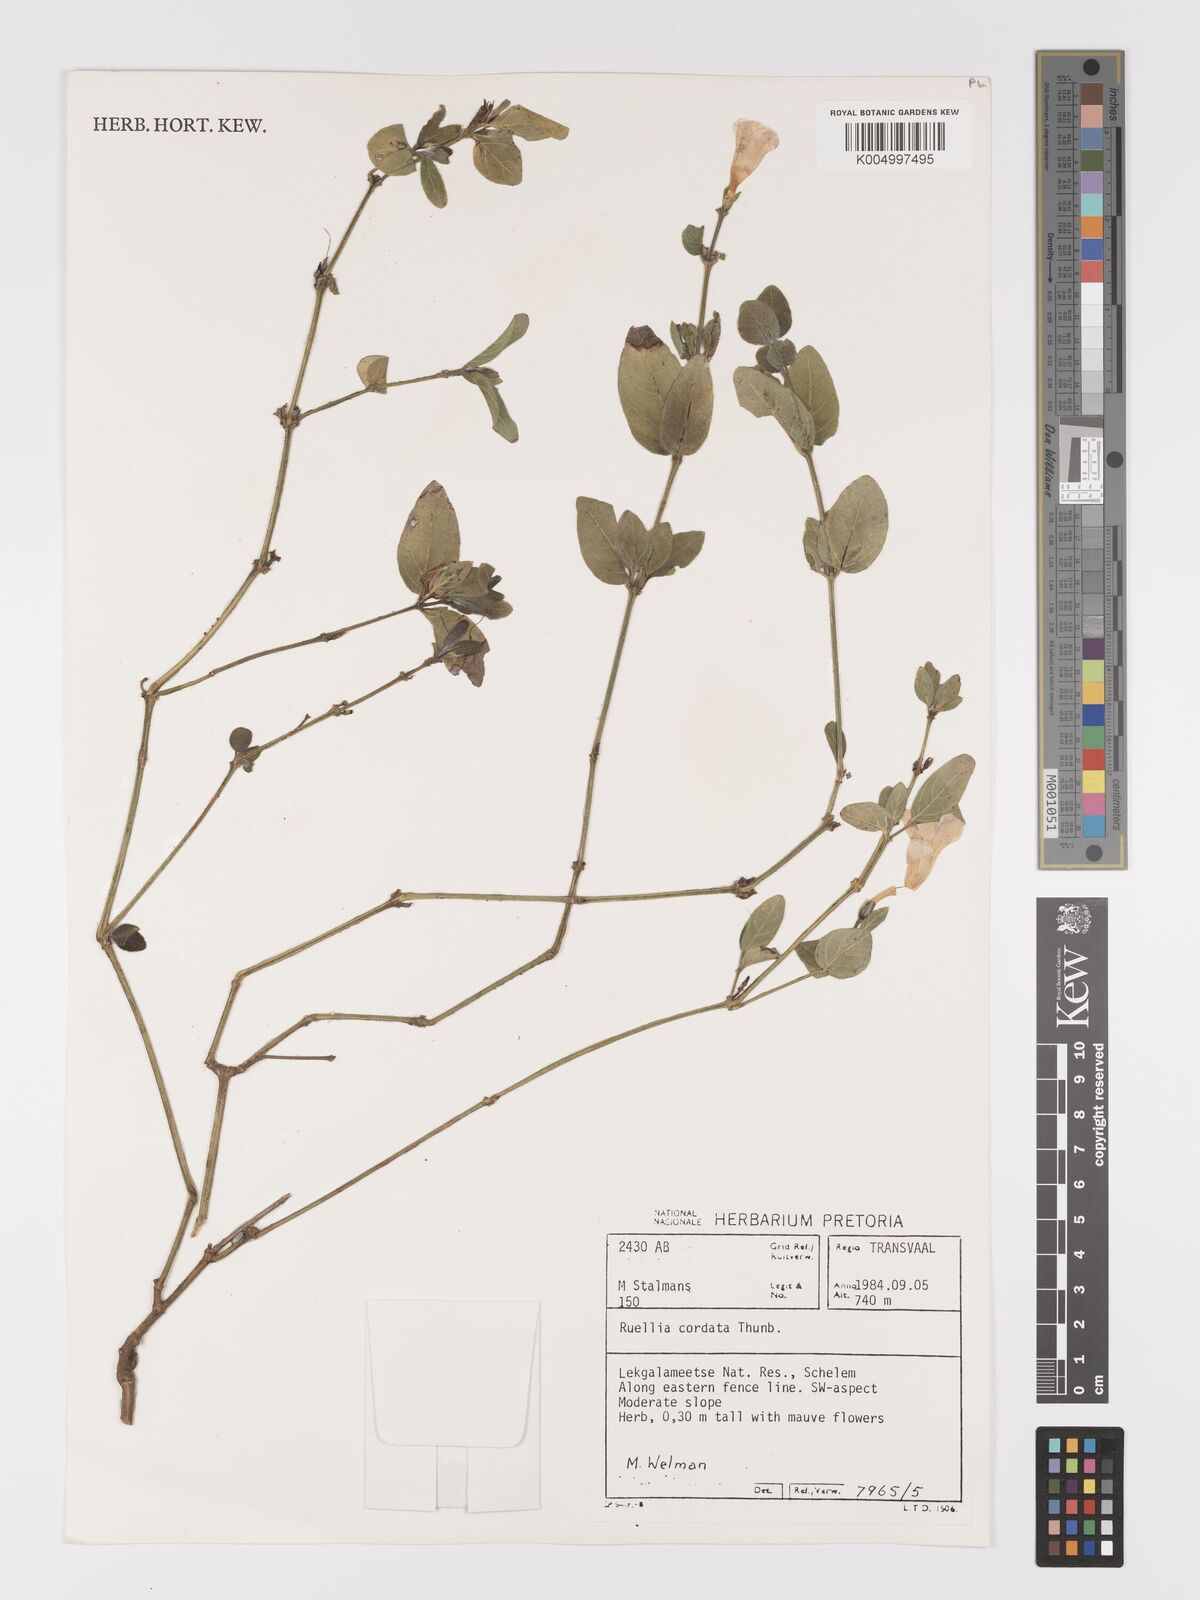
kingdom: Plantae
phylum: Tracheophyta
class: Magnoliopsida
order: Lamiales
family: Acanthaceae
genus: Ruellia
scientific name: Ruellia cordata
